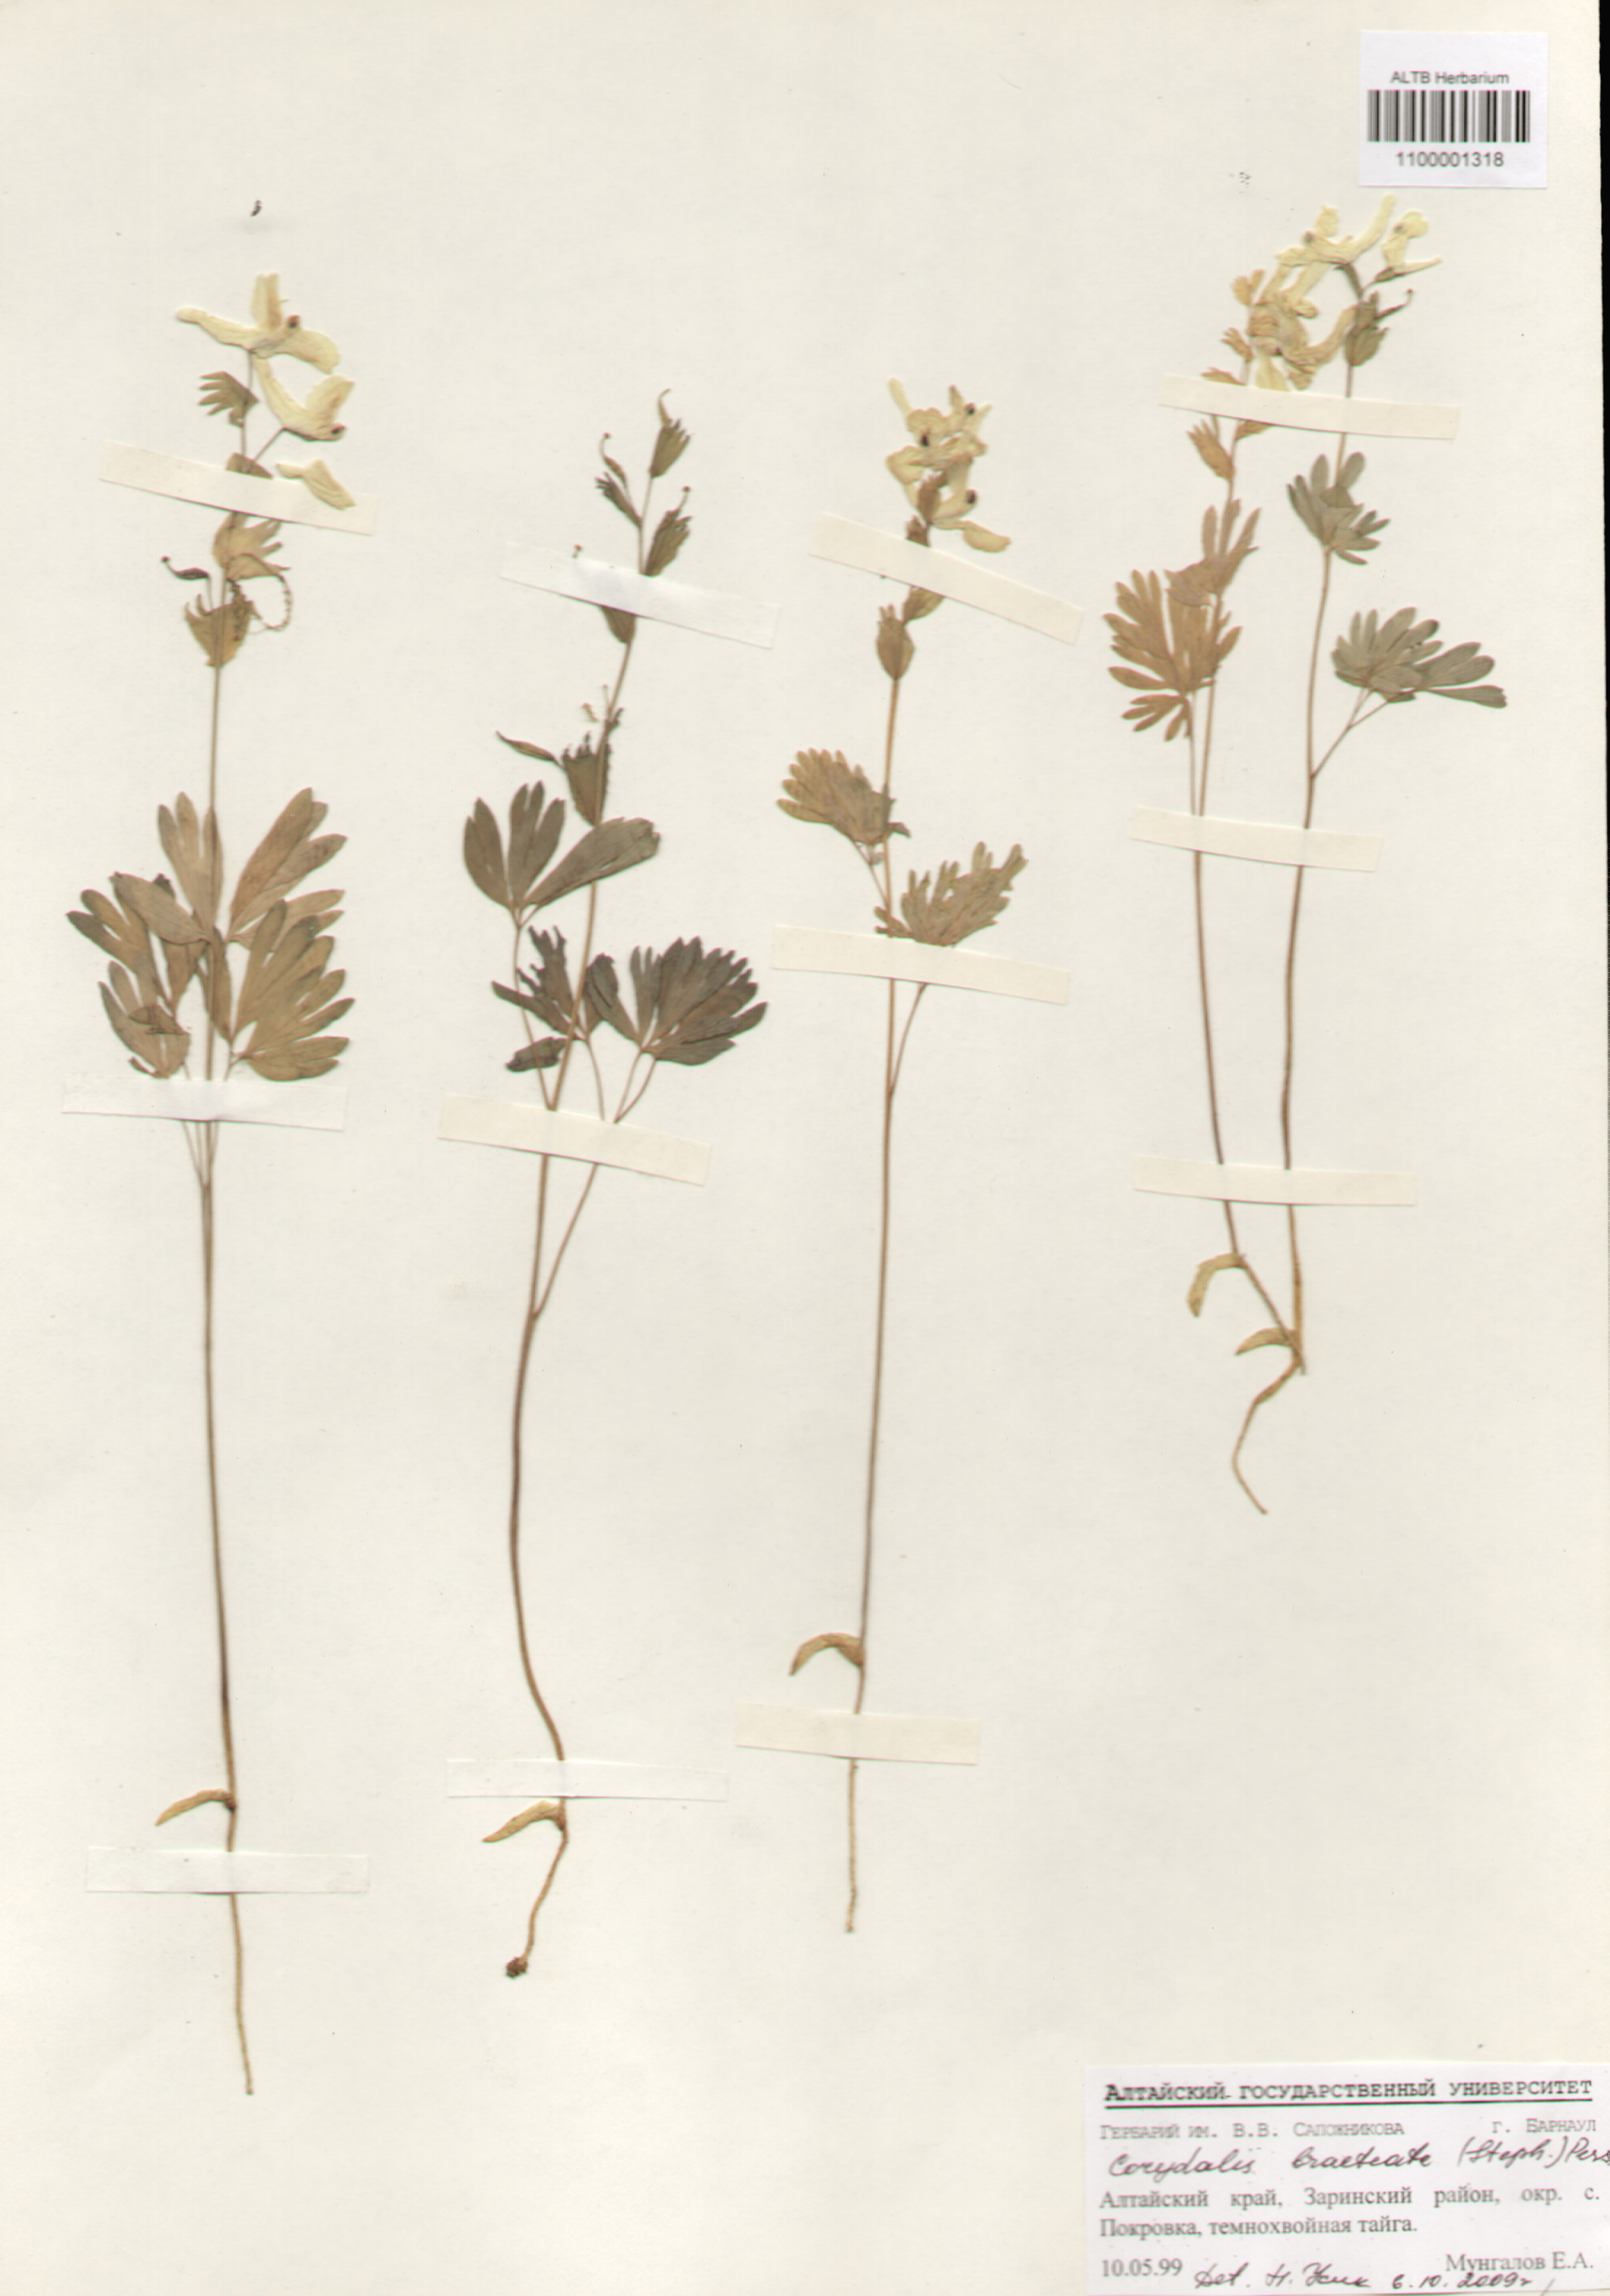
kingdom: Plantae
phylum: Tracheophyta
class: Magnoliopsida
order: Ranunculales
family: Papaveraceae
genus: Corydalis
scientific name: Corydalis bracteata
